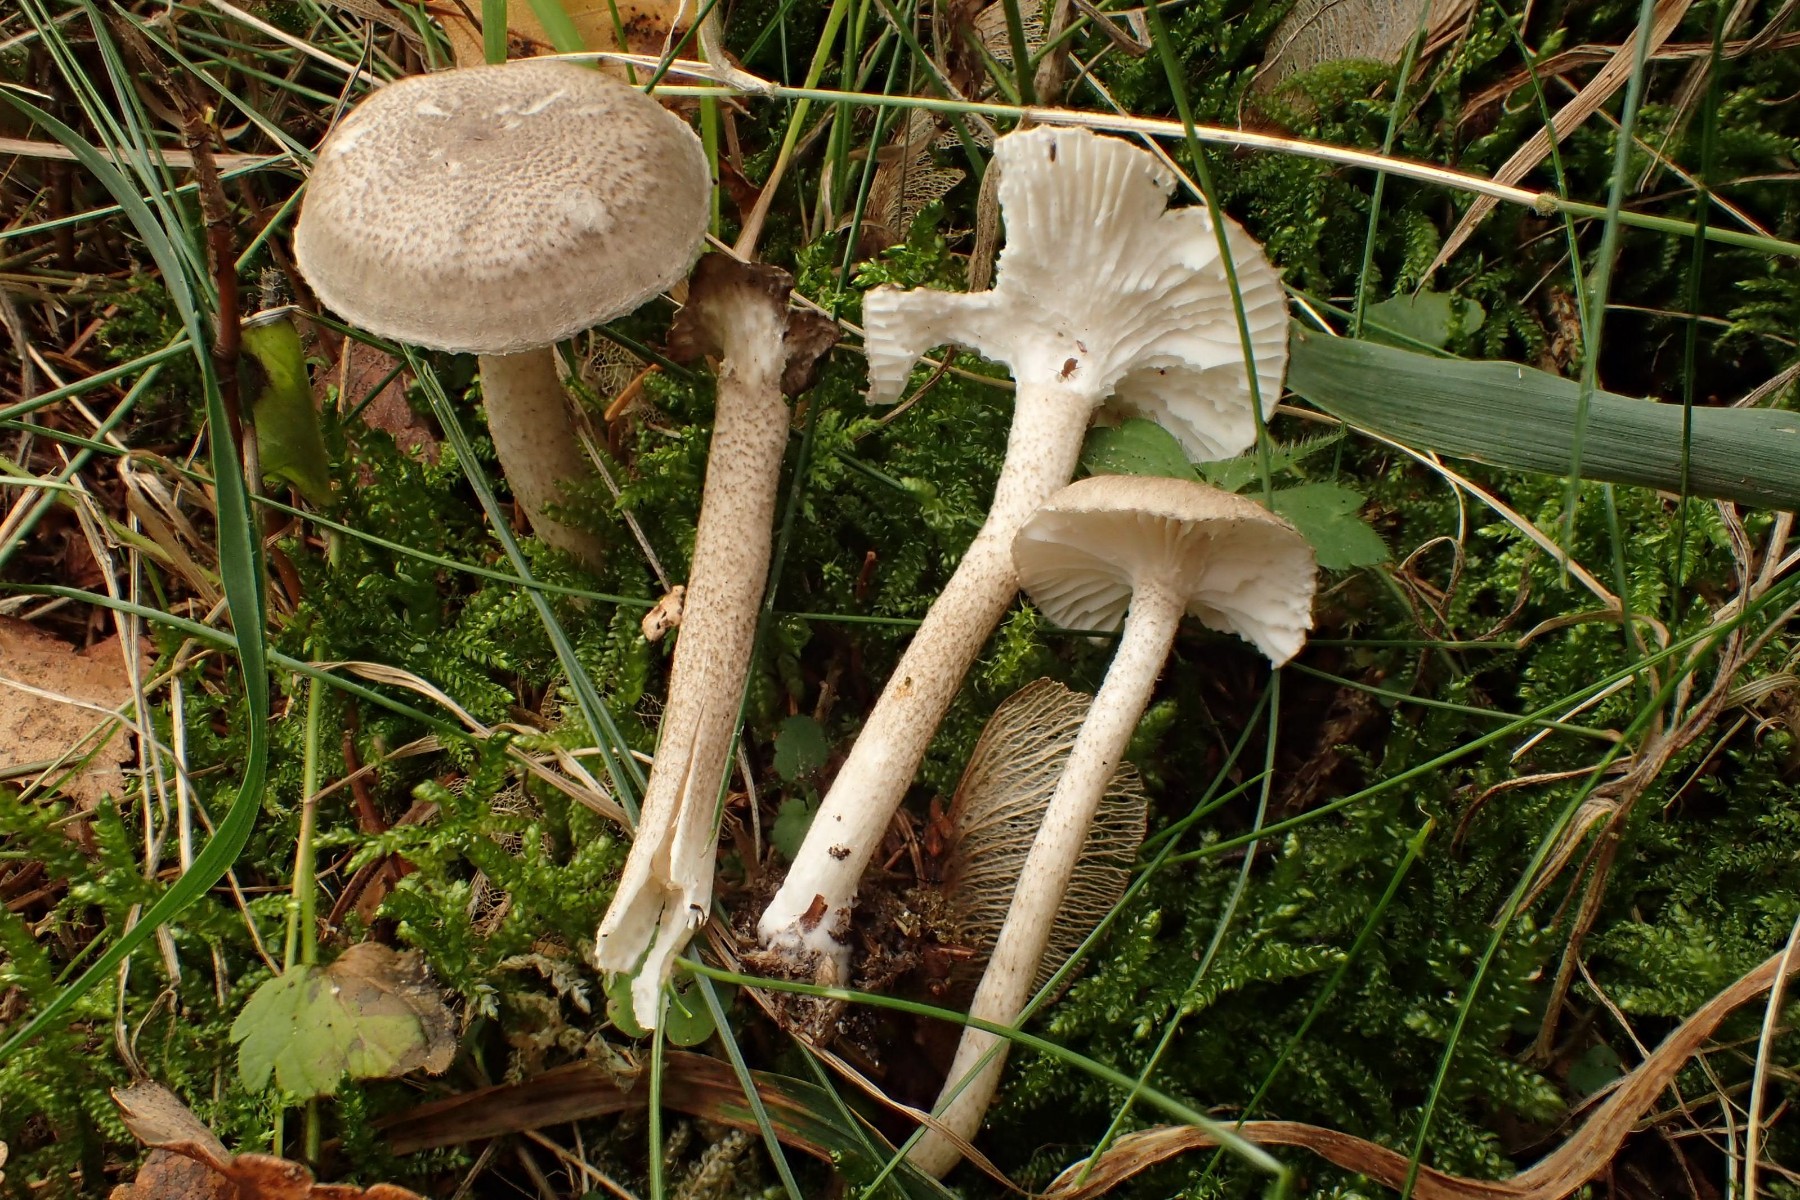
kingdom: Fungi
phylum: Basidiomycota
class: Agaricomycetes
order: Agaricales
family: Hygrophoraceae
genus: Hygrophorus
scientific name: Hygrophorus pustulatus
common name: mørkprikket sneglehat
